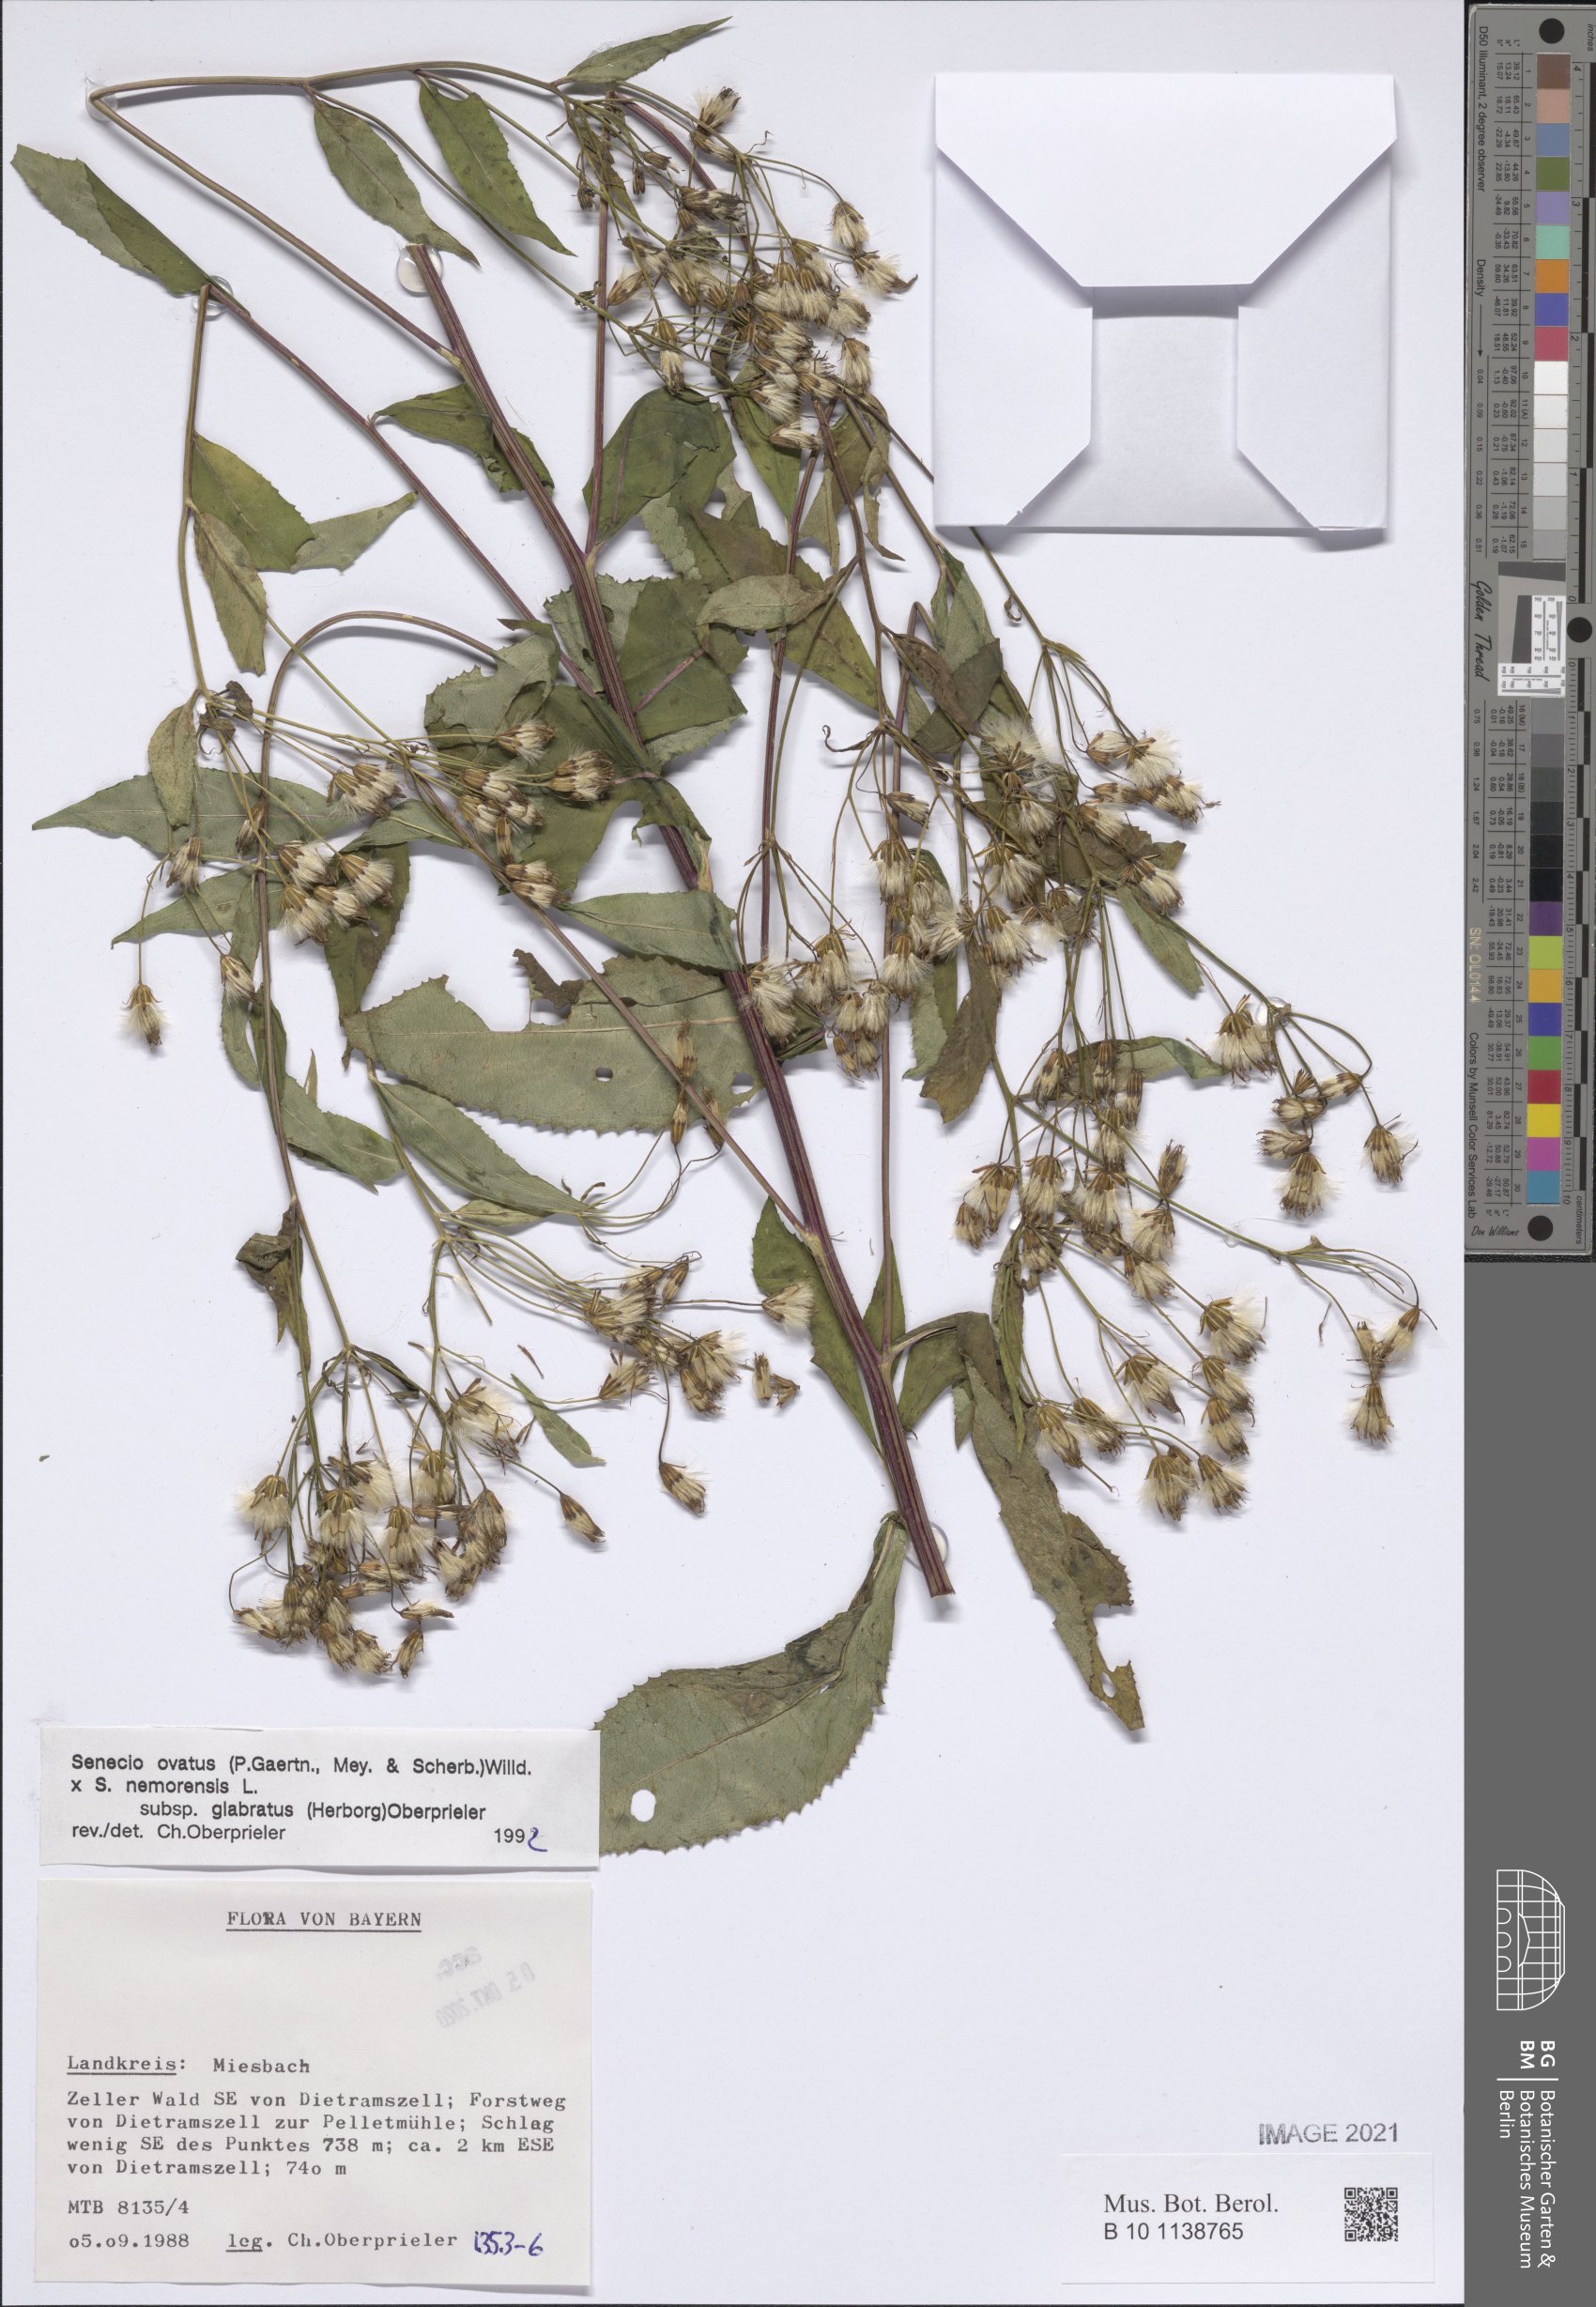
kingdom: Plantae
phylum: Tracheophyta
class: Magnoliopsida
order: Asterales
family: Asteraceae
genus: Senecio
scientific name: Senecio ovatus
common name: Wood ragwort
